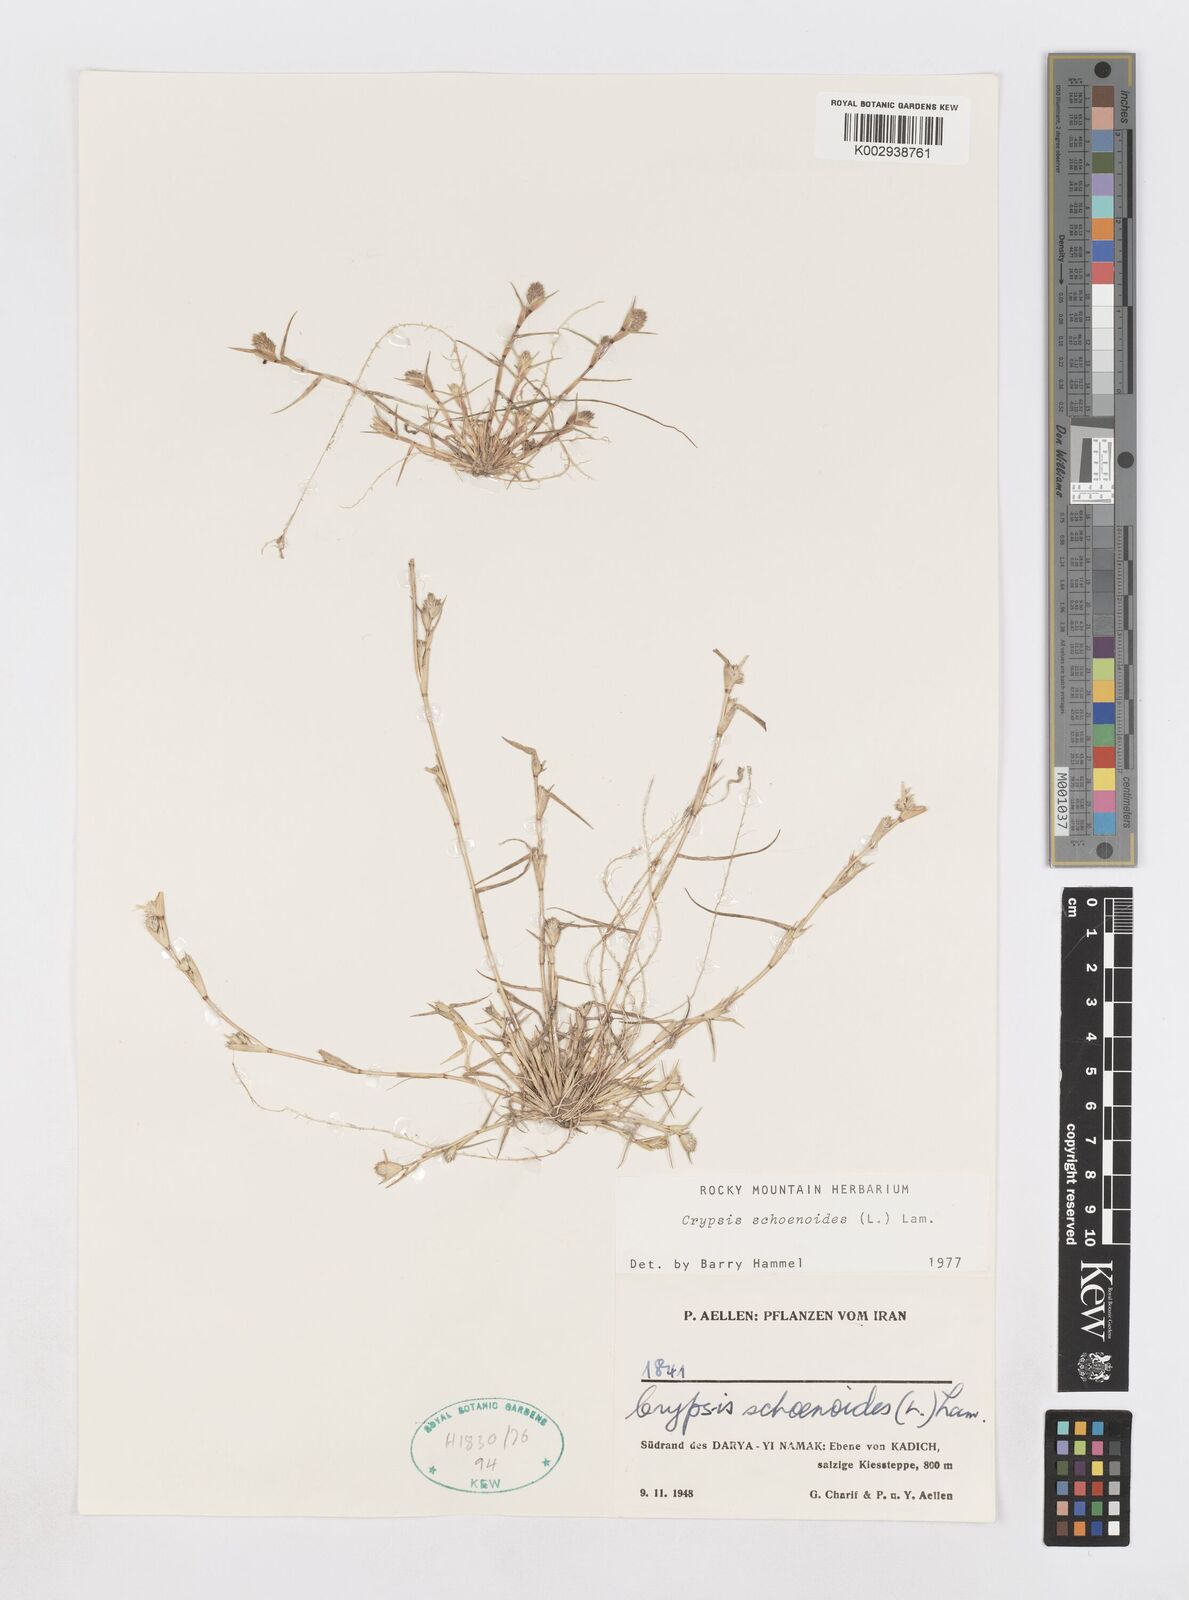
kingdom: Plantae
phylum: Tracheophyta
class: Liliopsida
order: Poales
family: Poaceae
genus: Sporobolus
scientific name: Sporobolus schoenoides
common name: Rush-like timothy
